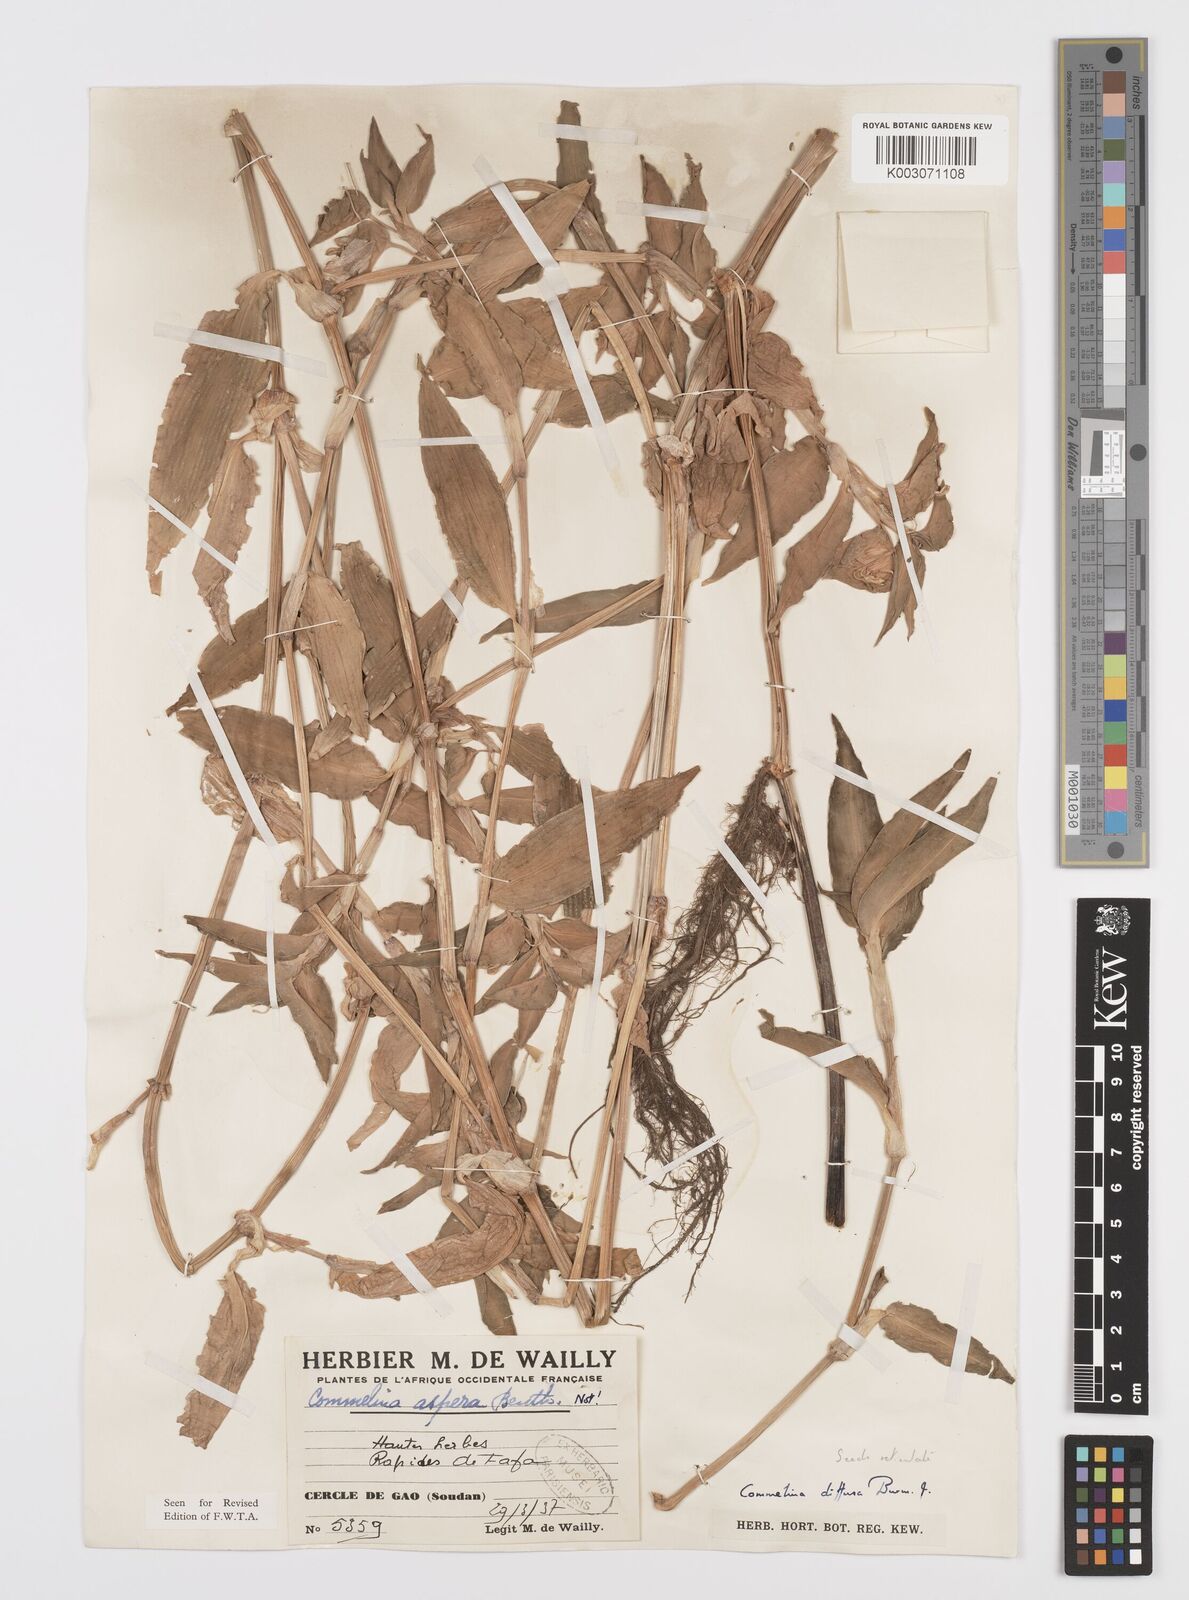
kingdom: Plantae
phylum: Tracheophyta
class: Liliopsida
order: Commelinales
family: Commelinaceae
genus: Commelina
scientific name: Commelina diffusa
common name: Climbing dayflower
